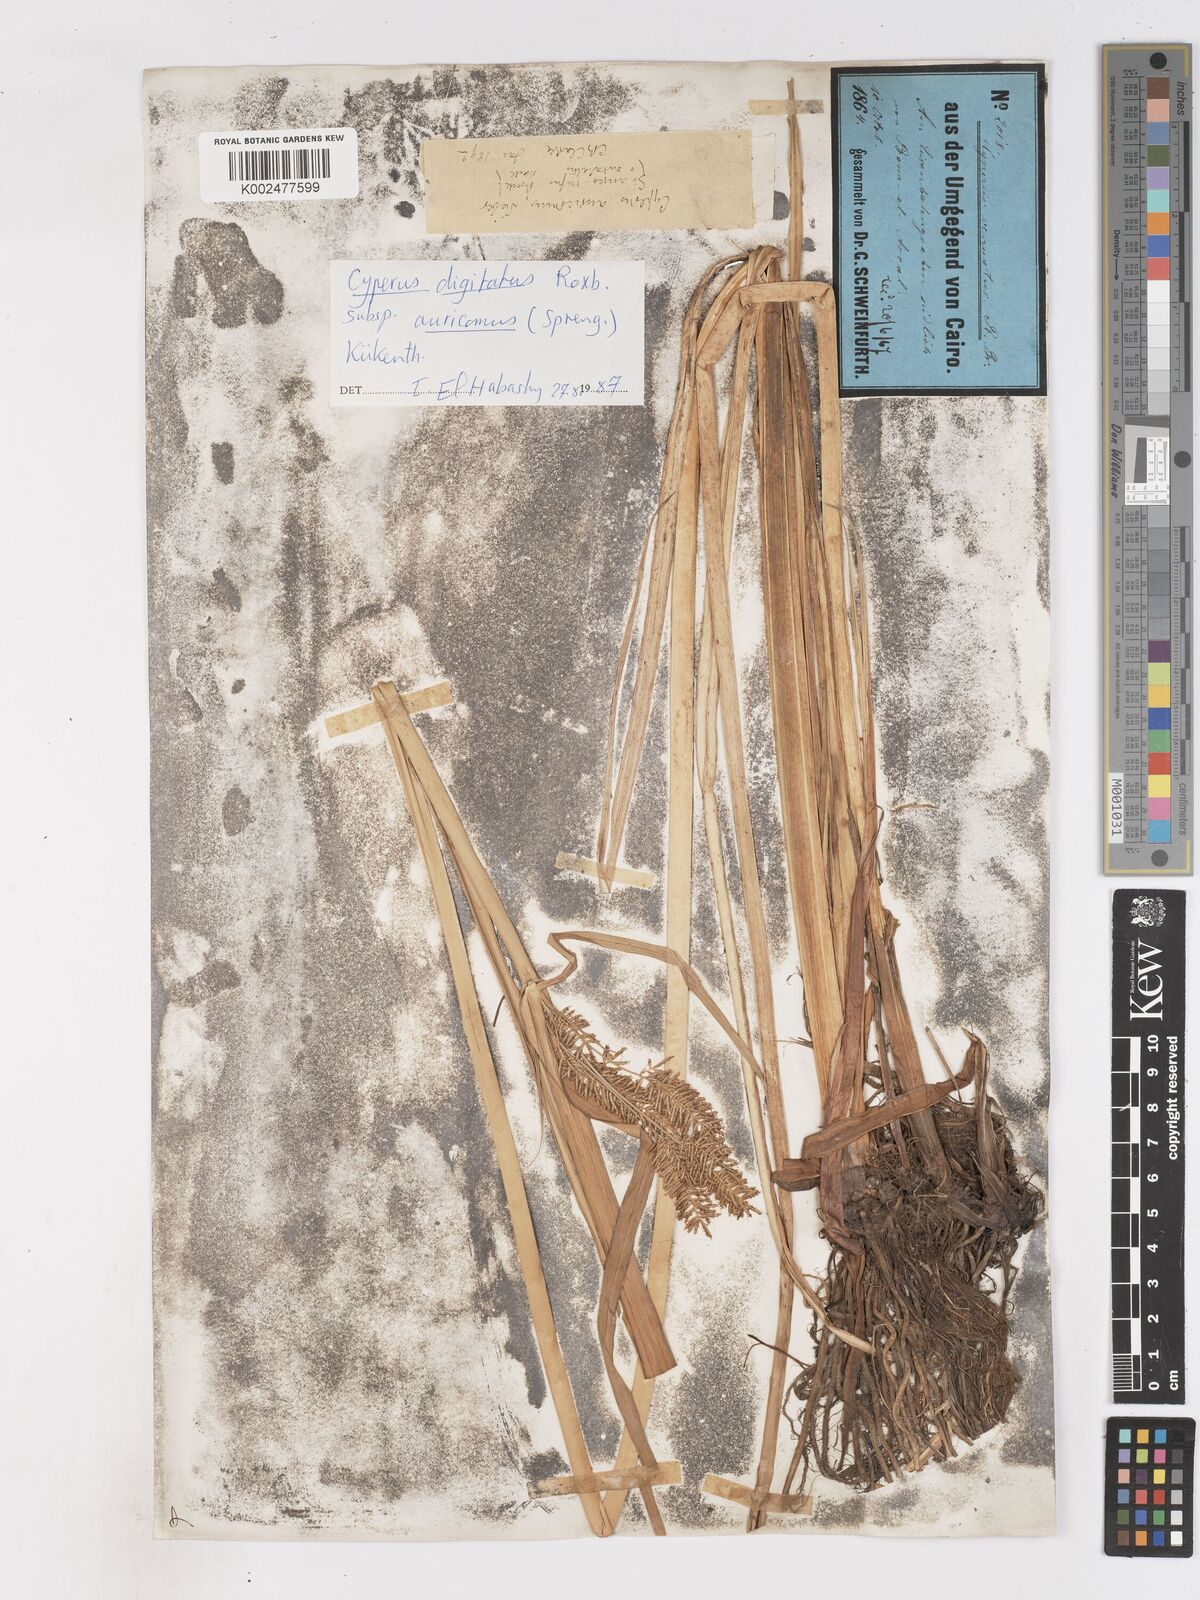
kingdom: Plantae
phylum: Tracheophyta
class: Liliopsida
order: Poales
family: Cyperaceae
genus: Cyperus
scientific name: Cyperus digitatus
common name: Finger flatsedge
